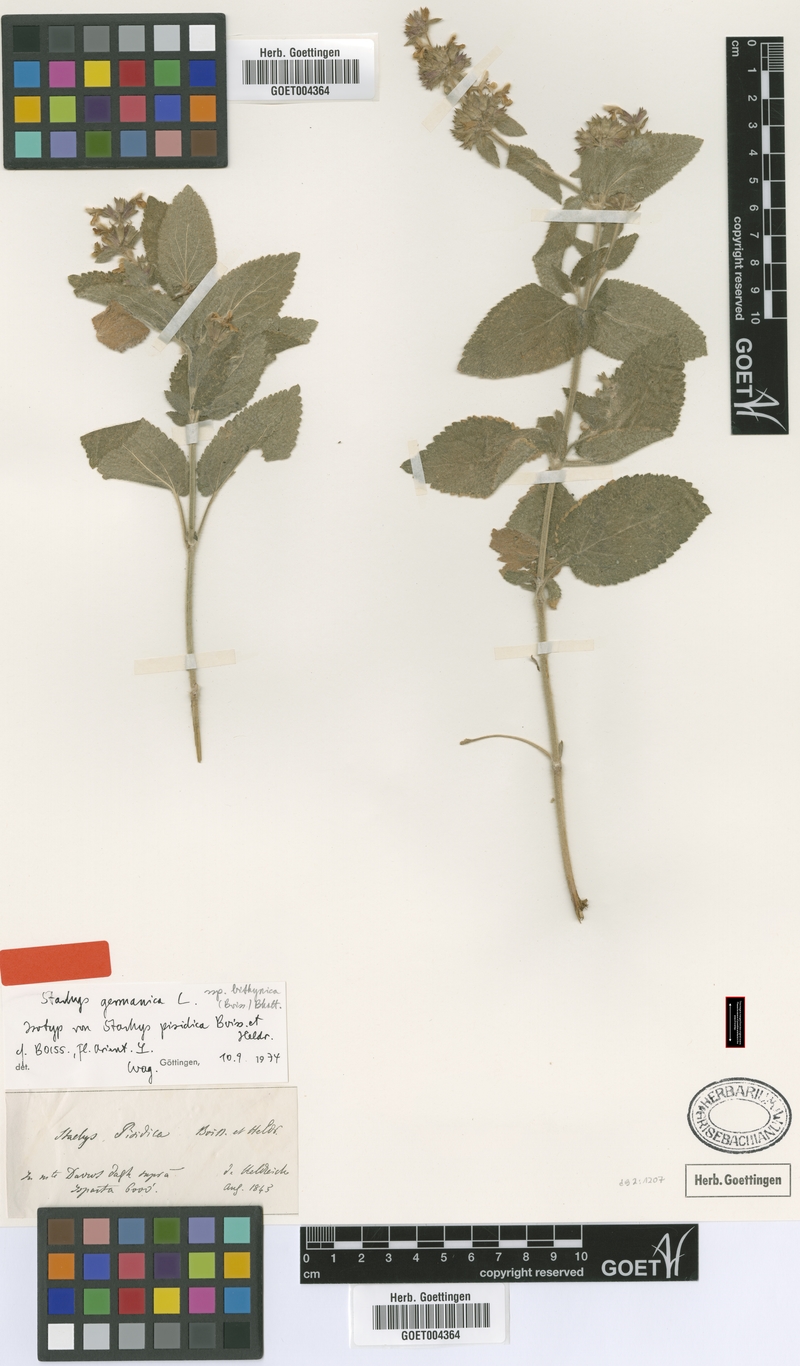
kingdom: Plantae
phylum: Tracheophyta
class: Magnoliopsida
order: Lamiales
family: Lamiaceae
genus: Stachys
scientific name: Stachys bithynica
